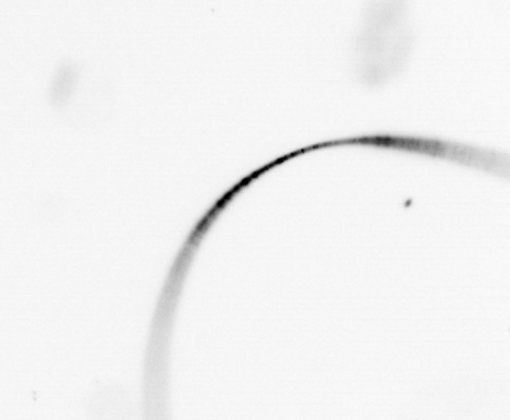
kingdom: Chromista
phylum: Ochrophyta
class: Bacillariophyceae
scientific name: Bacillariophyceae
